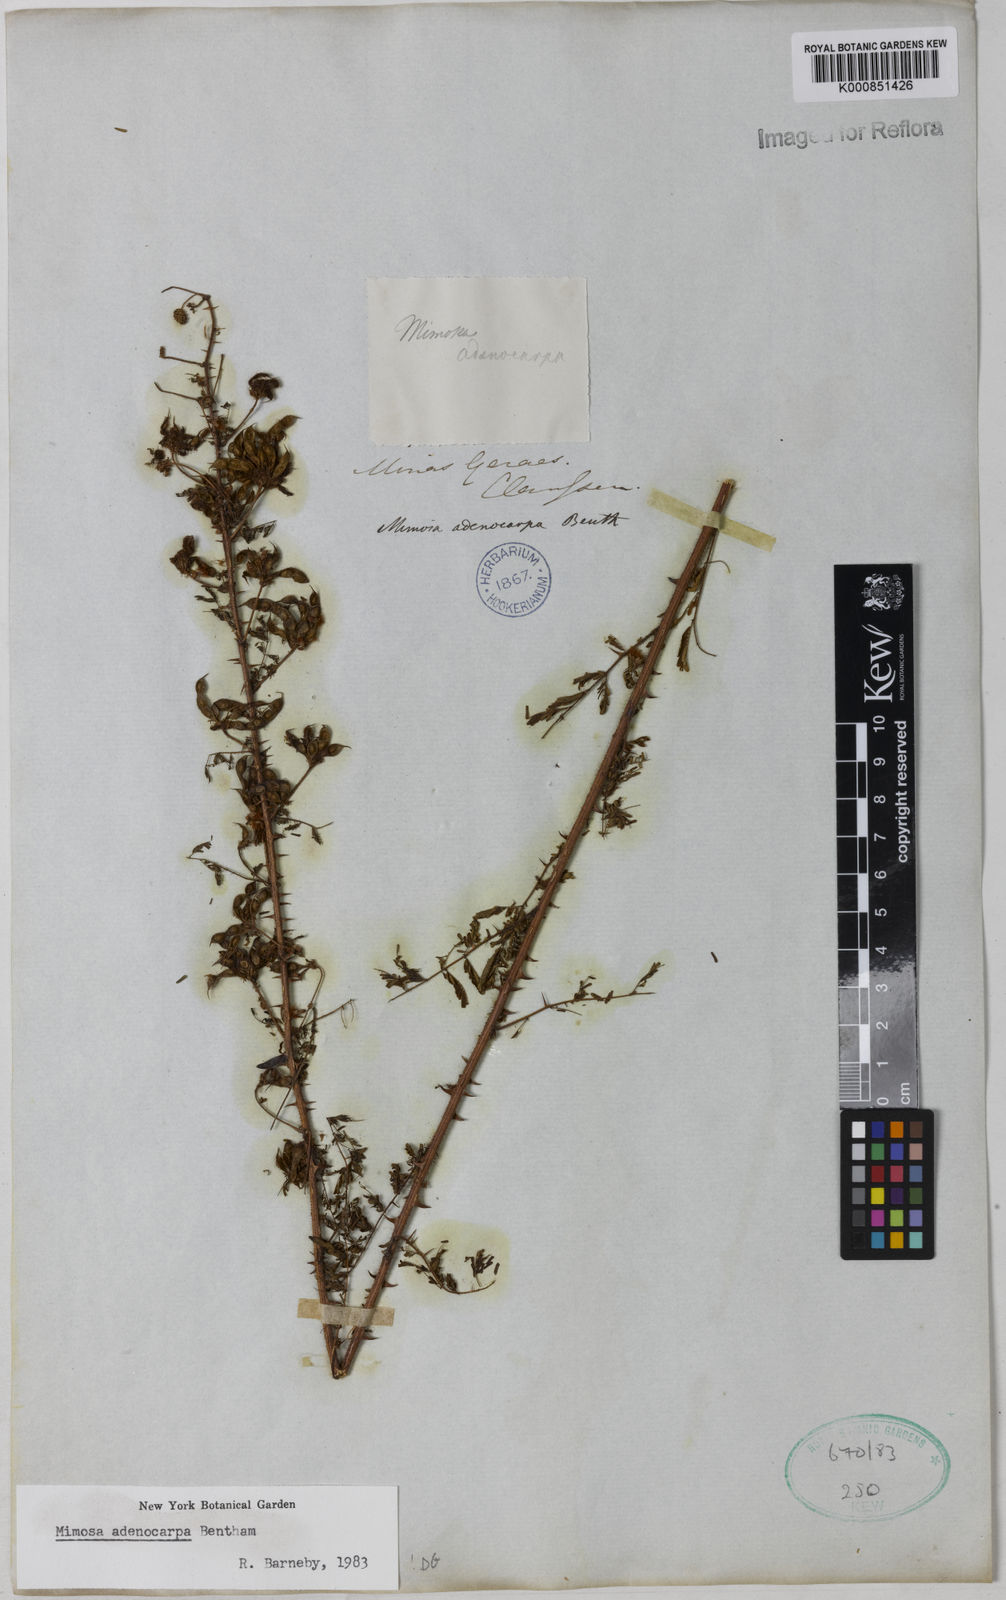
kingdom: Plantae
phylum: Tracheophyta
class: Magnoliopsida
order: Fabales
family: Fabaceae
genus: Mimosa
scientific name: Mimosa adenocarpa
